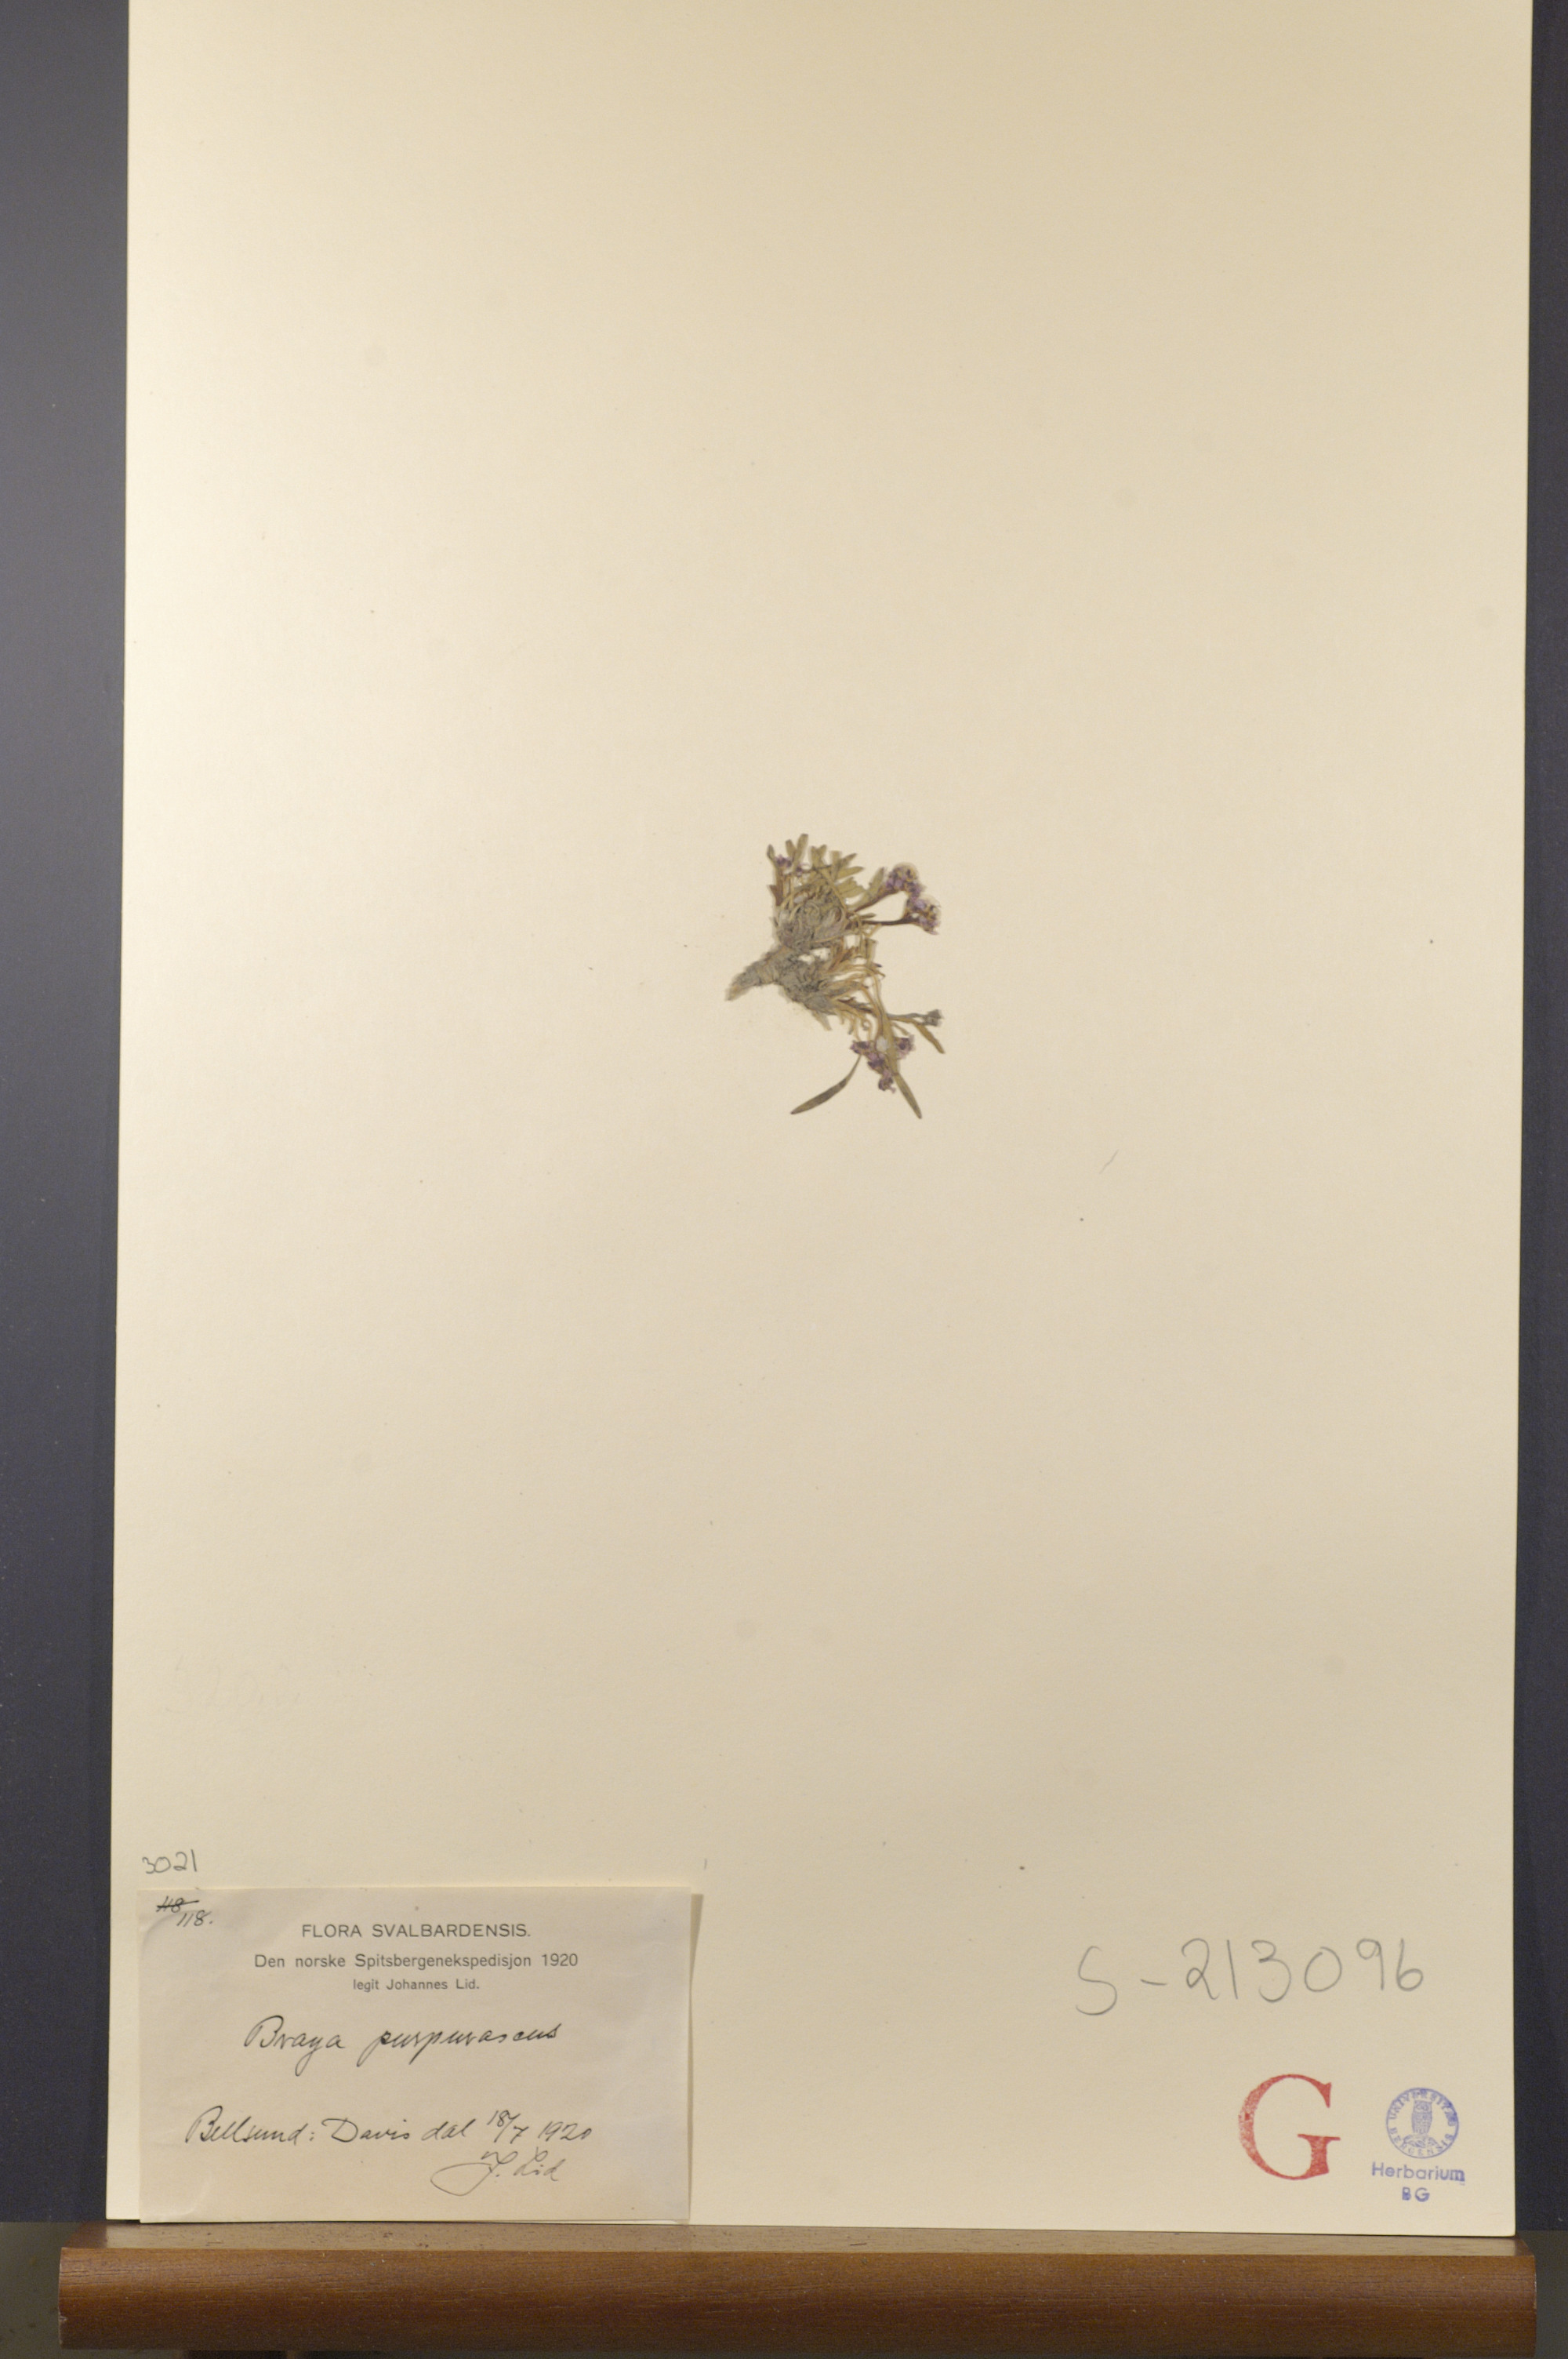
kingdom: Plantae
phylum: Tracheophyta
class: Magnoliopsida
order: Brassicales
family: Brassicaceae
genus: Braya
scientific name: Braya purpurascens
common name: Alpine braya
